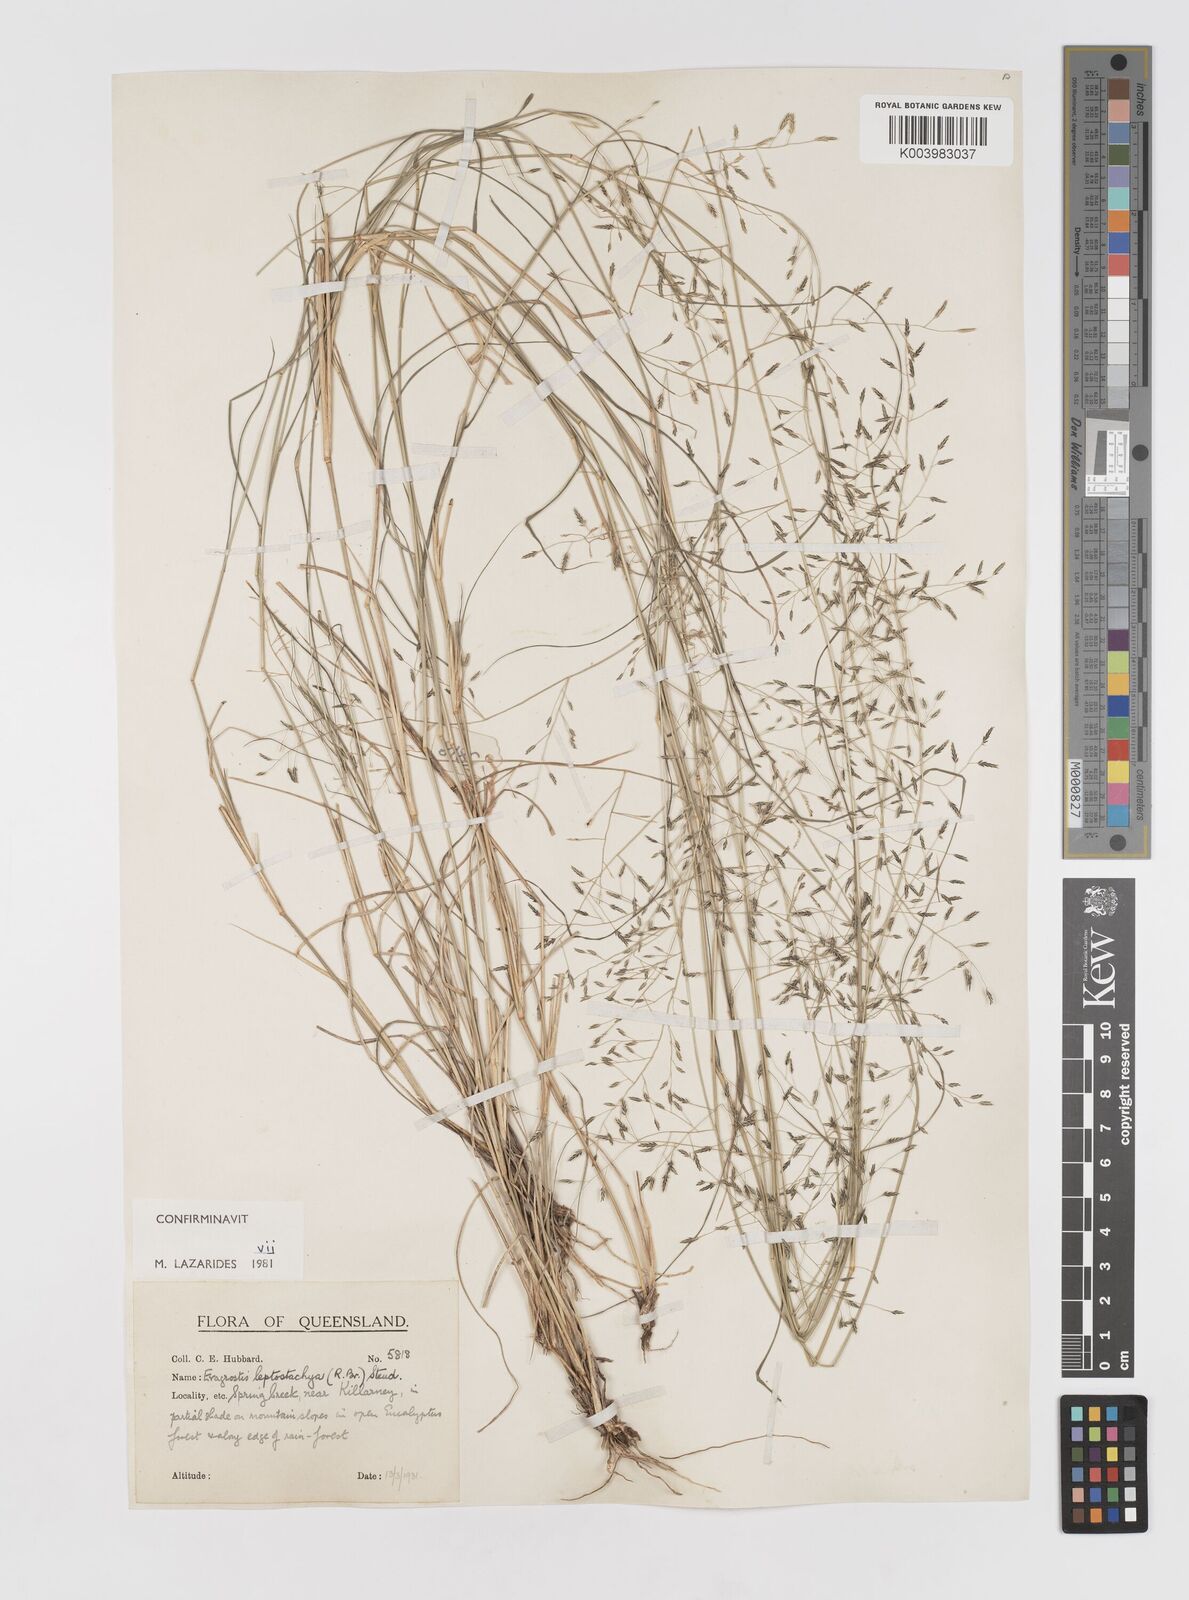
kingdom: Plantae
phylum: Tracheophyta
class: Liliopsida
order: Poales
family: Poaceae
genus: Eragrostis
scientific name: Eragrostis leptostachya
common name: Australian lovegrass
